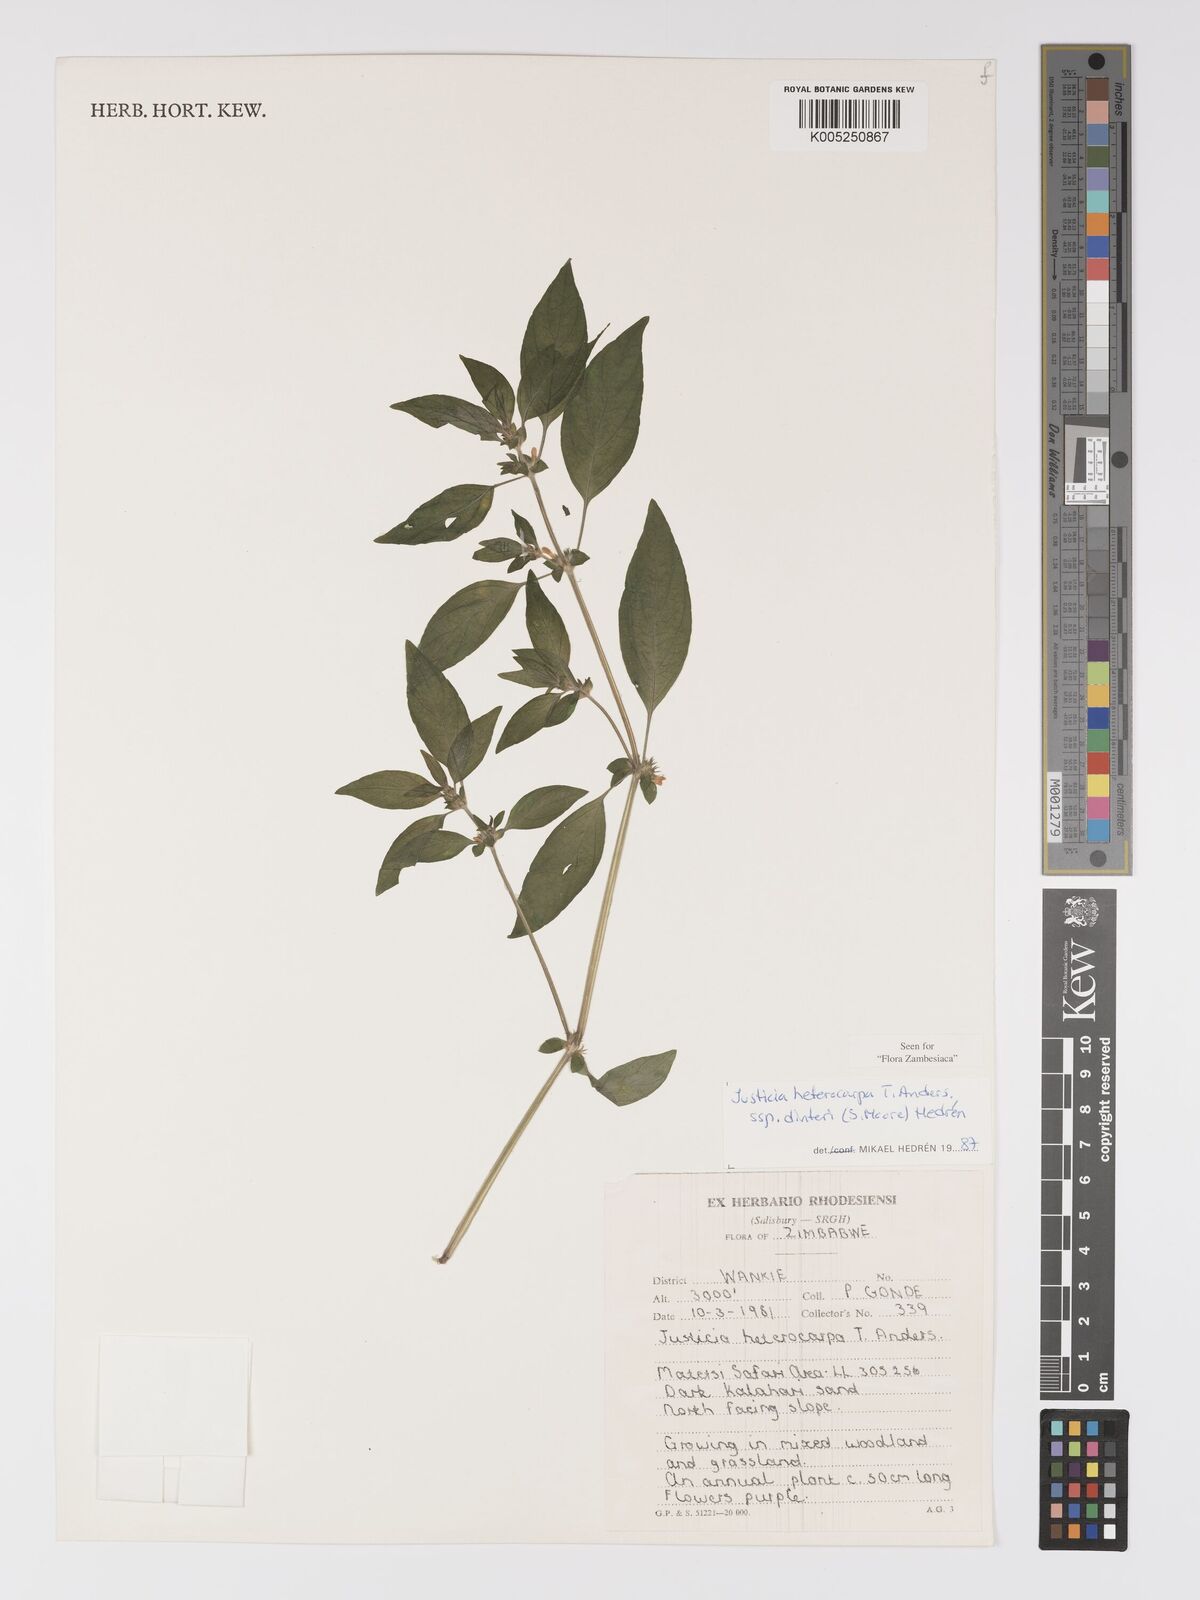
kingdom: Plantae
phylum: Tracheophyta
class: Magnoliopsida
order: Lamiales
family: Acanthaceae
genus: Justicia
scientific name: Justicia heterocarpa
